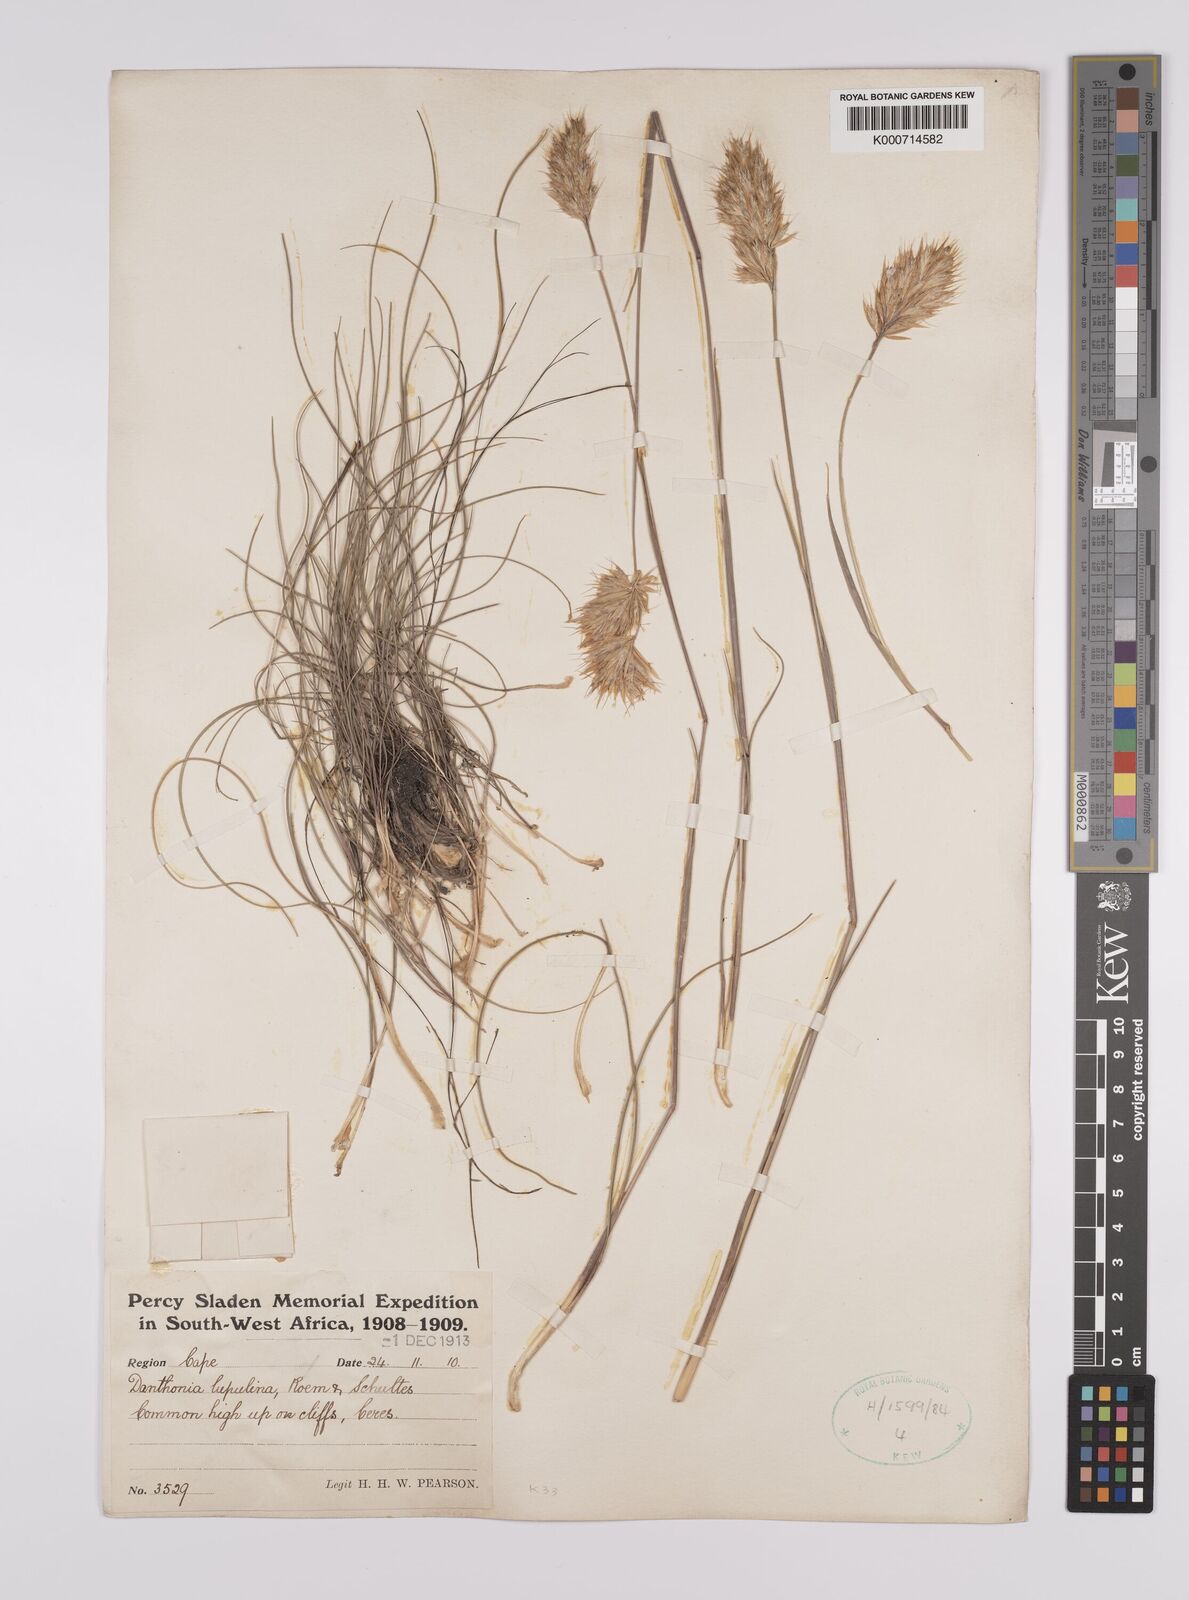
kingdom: Plantae
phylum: Tracheophyta
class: Liliopsida
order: Poales
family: Poaceae
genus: Rytidosperma
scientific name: Rytidosperma
